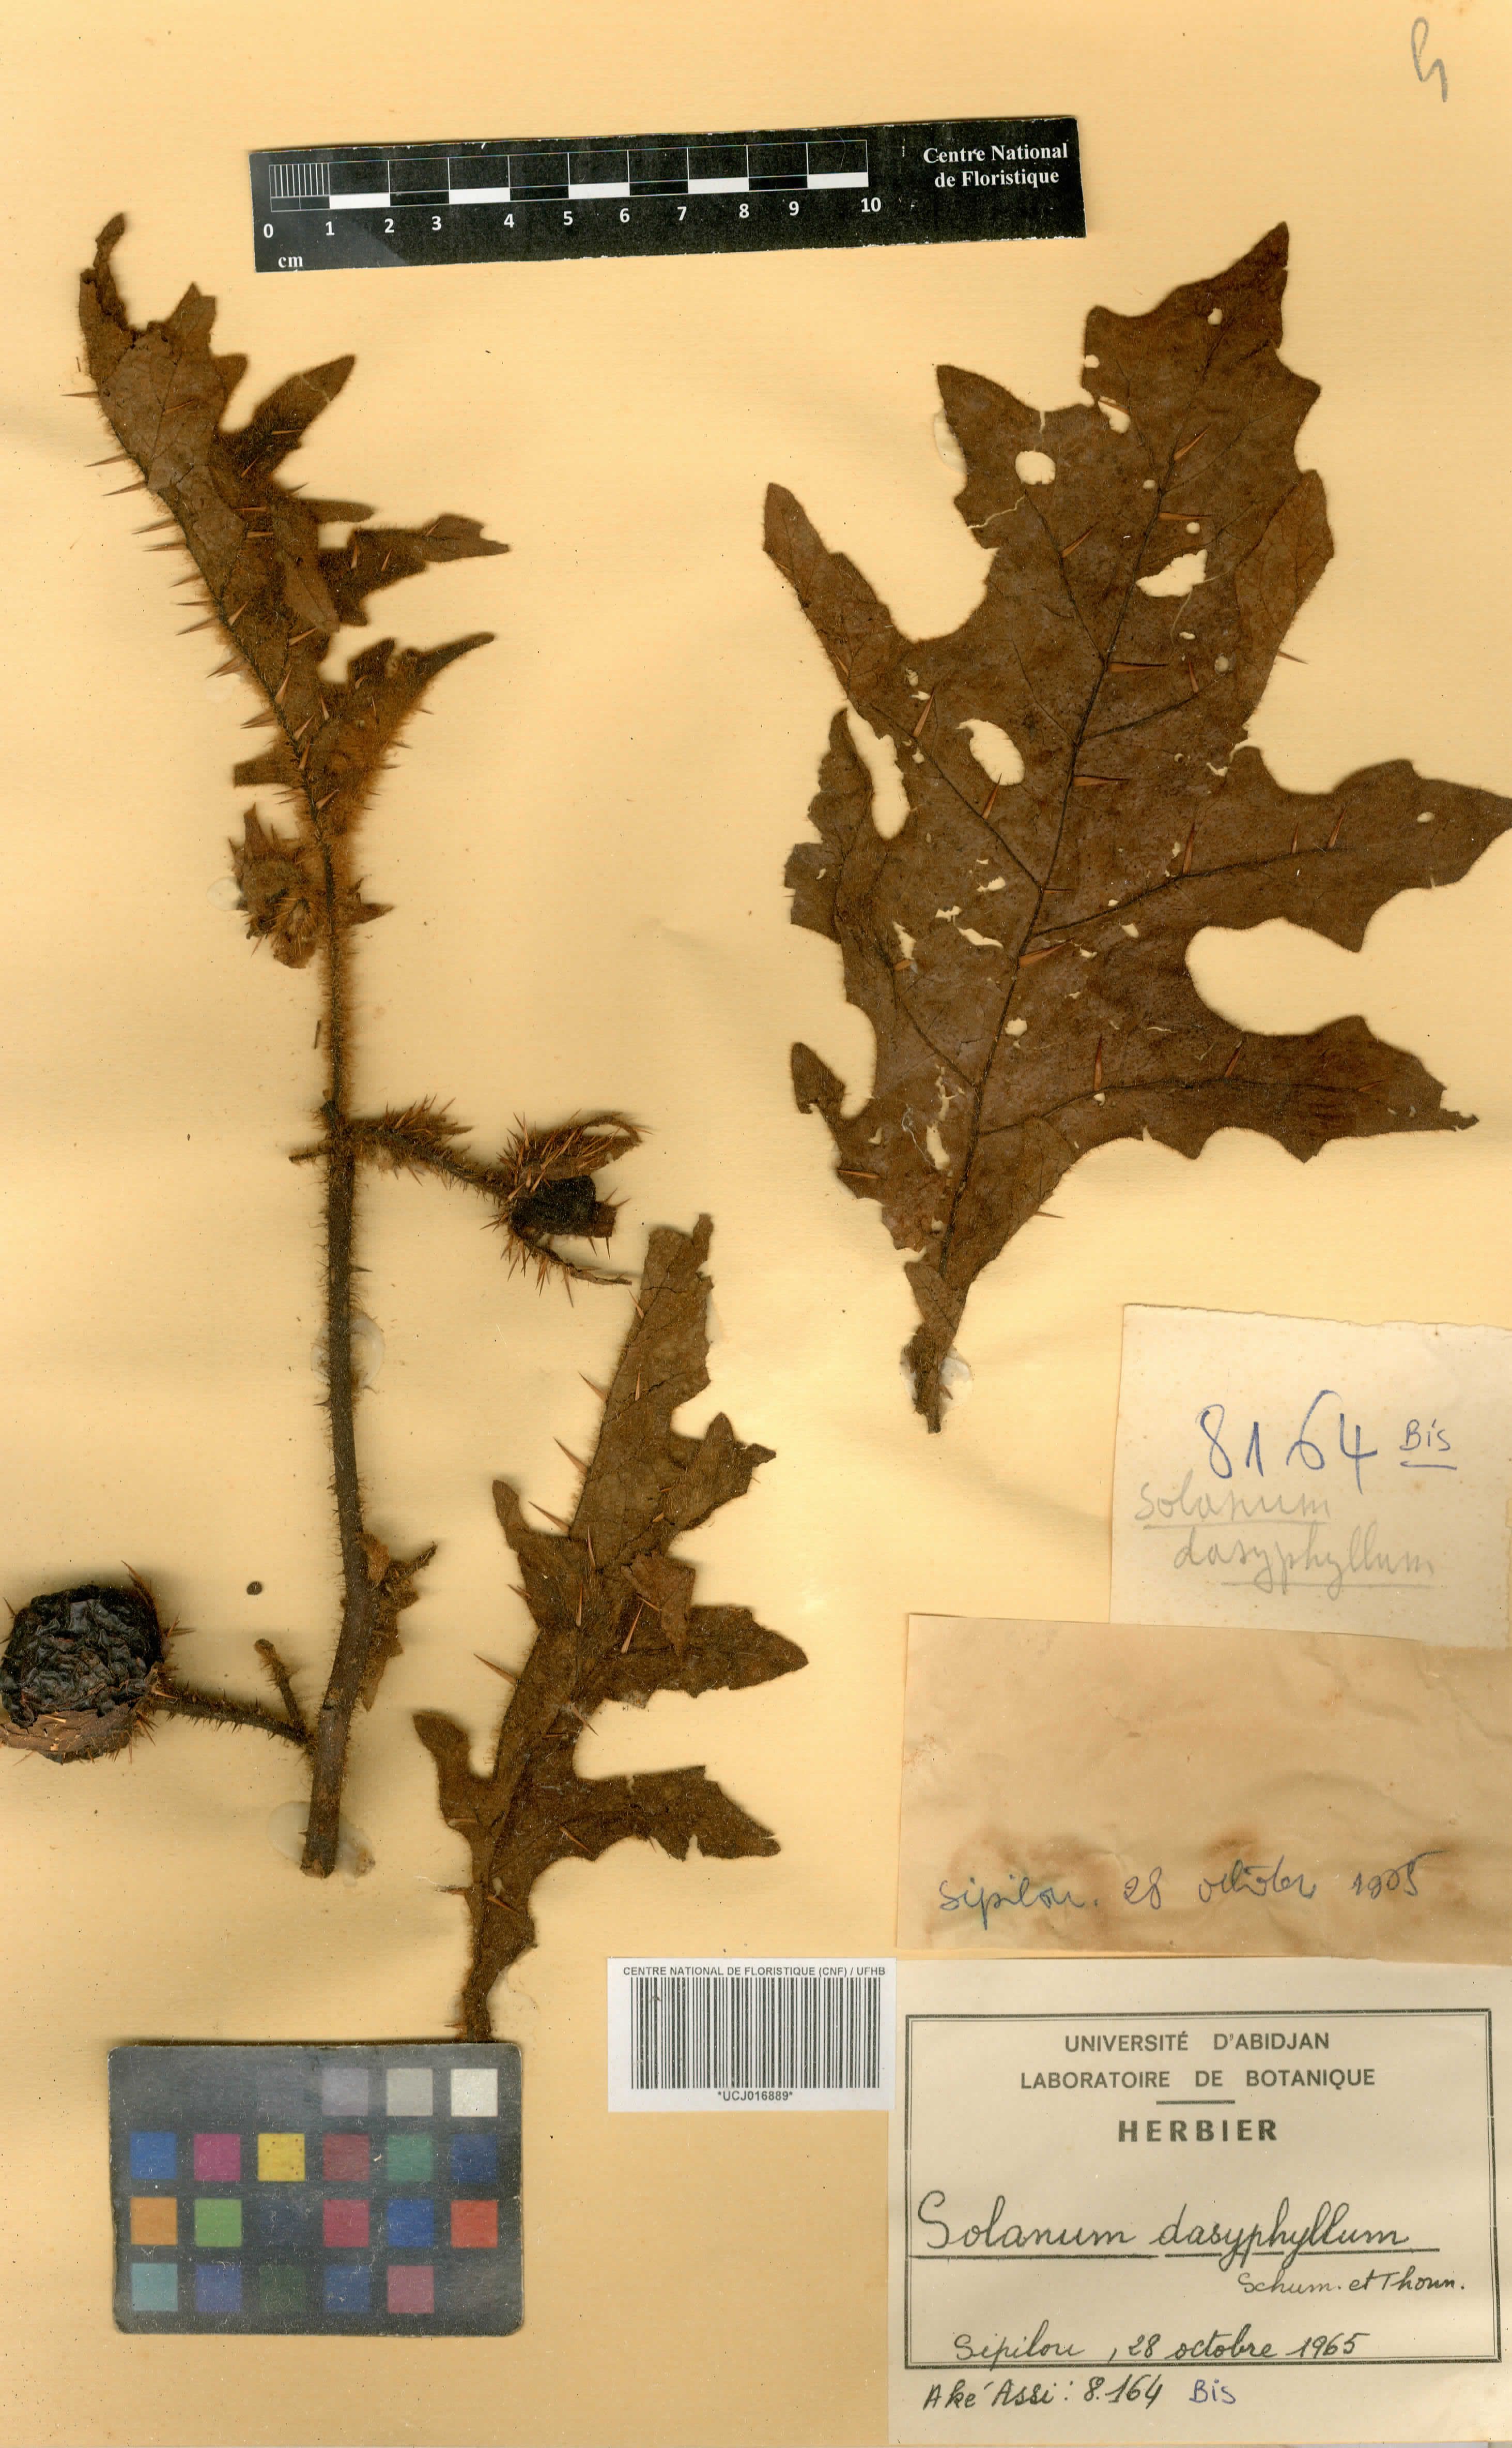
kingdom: Plantae
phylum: Tracheophyta
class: Magnoliopsida
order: Solanales
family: Solanaceae
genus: Solanum
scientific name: Solanum dasyphyllum
